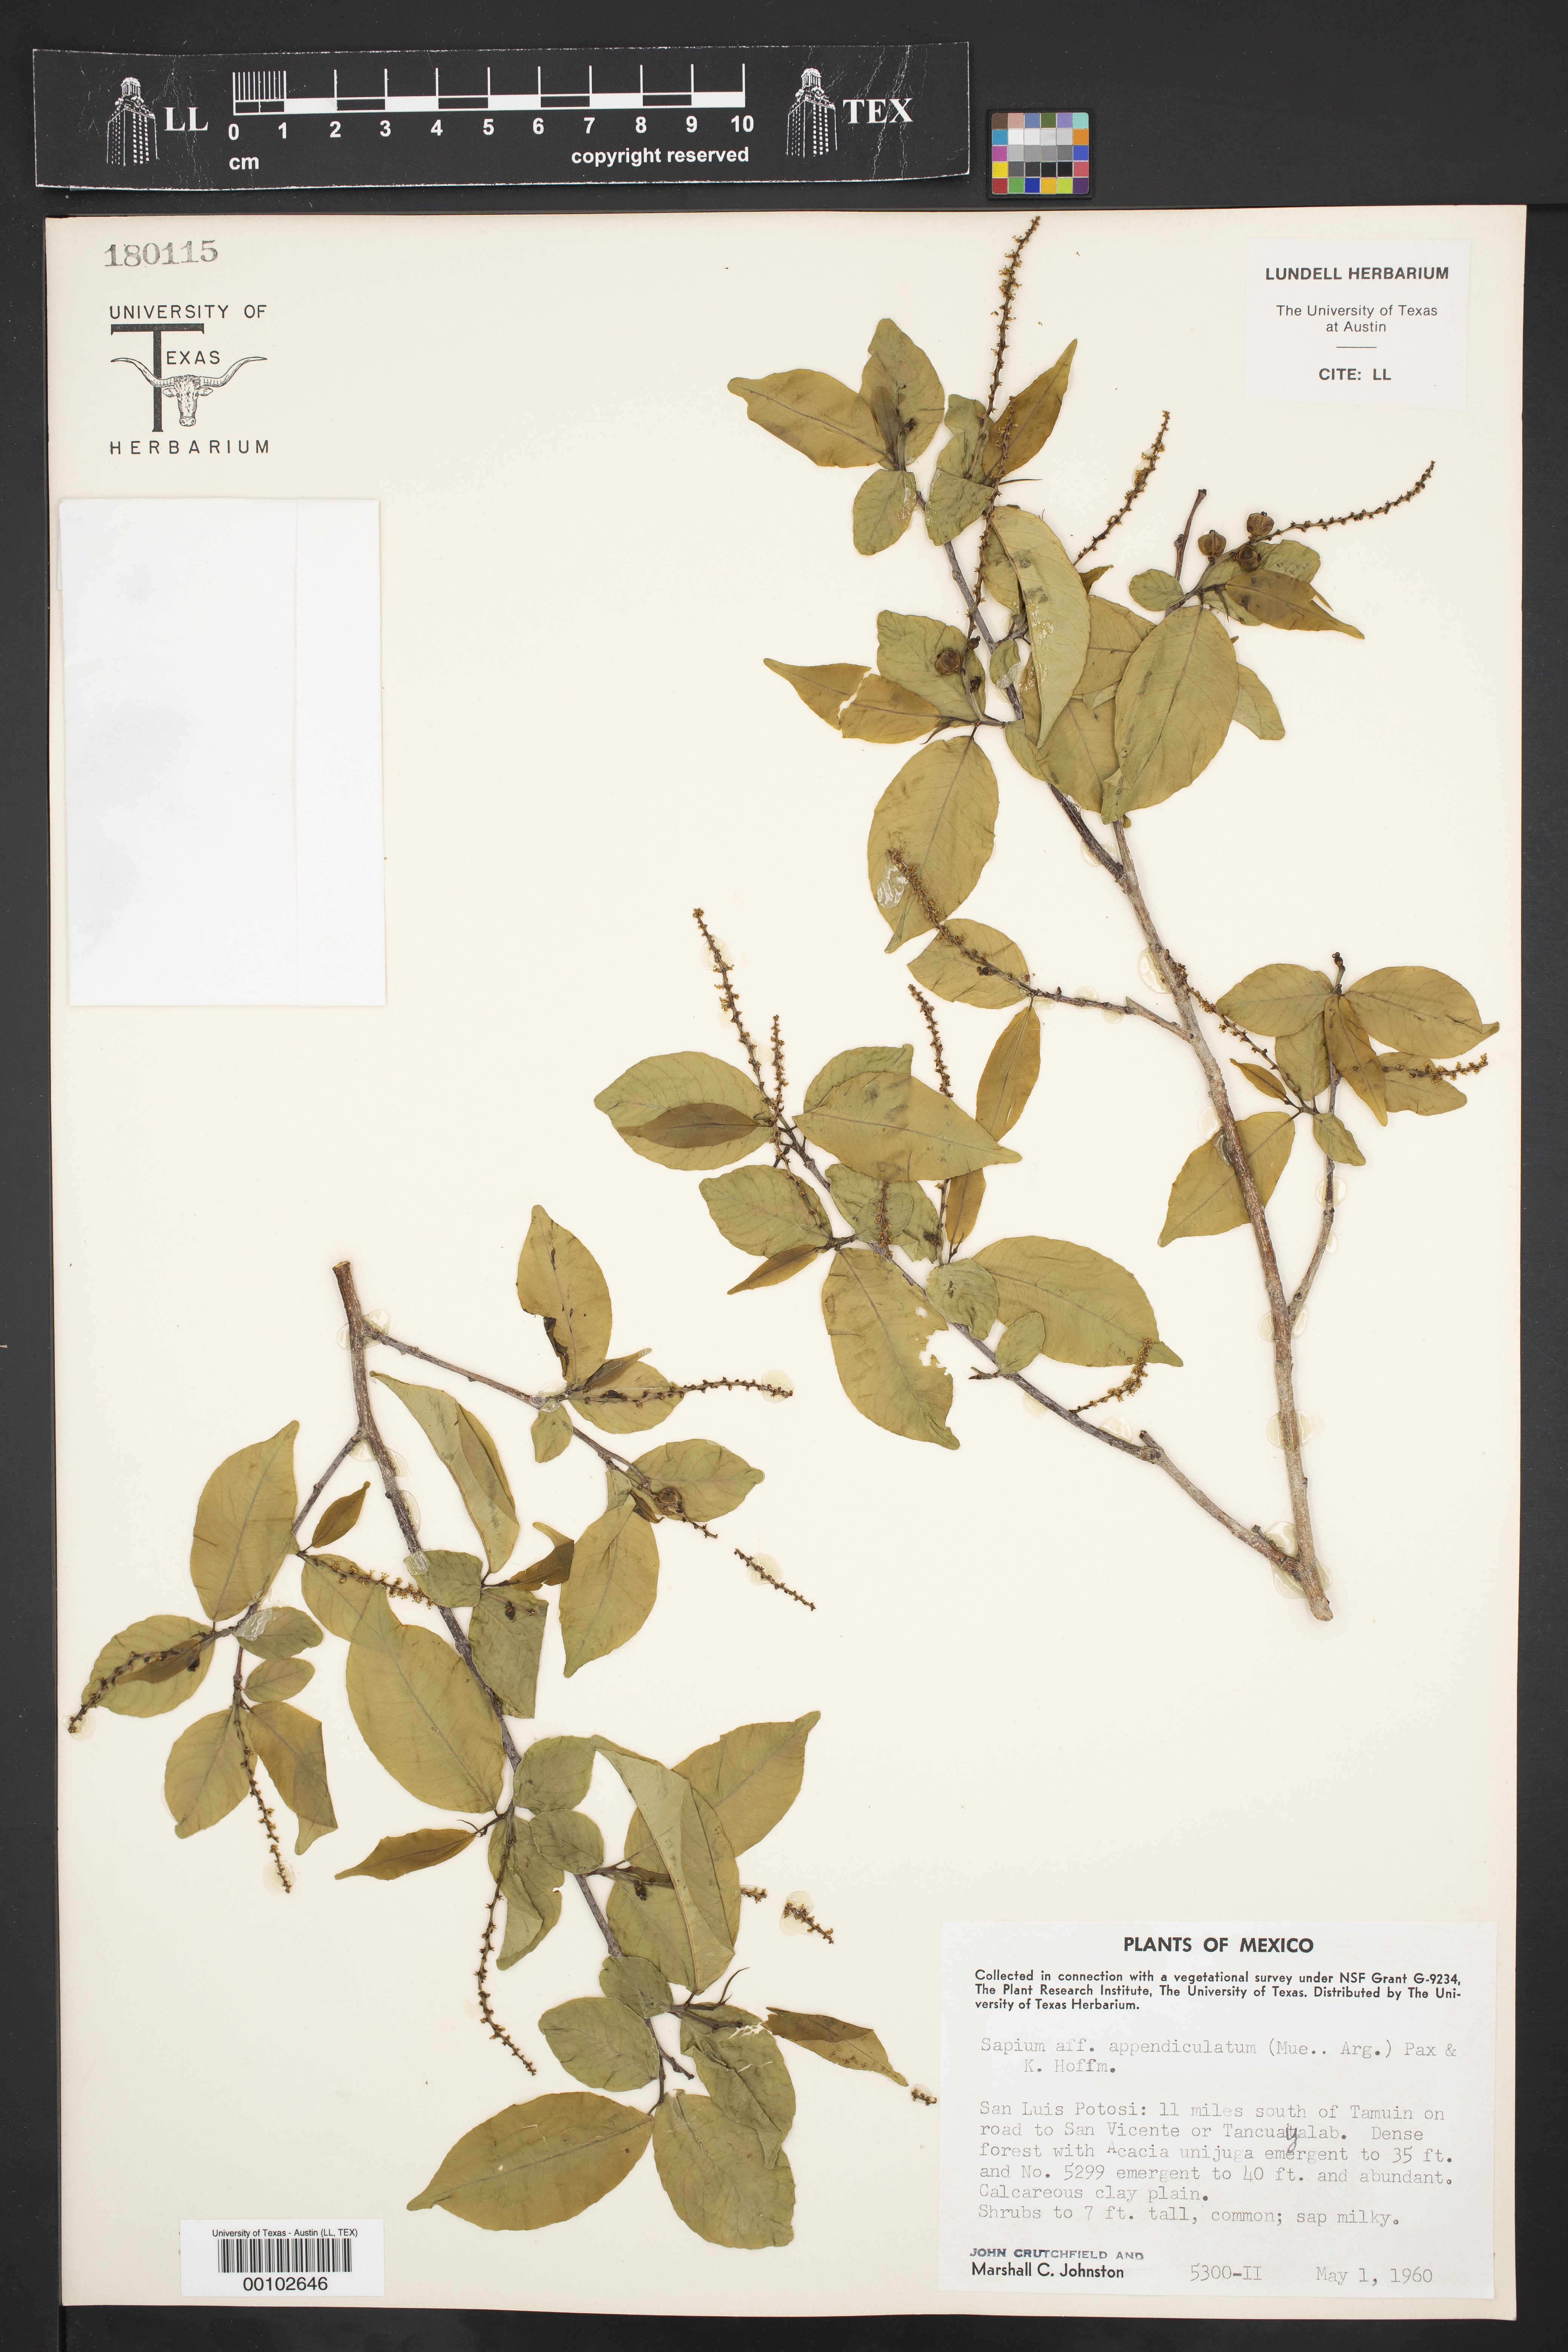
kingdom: Plantae
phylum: Tracheophyta
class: Magnoliopsida
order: Malpighiales
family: Euphorbiaceae
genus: Sebastiania
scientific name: Sebastiania pavoniana
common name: Mexican jumping-beans
